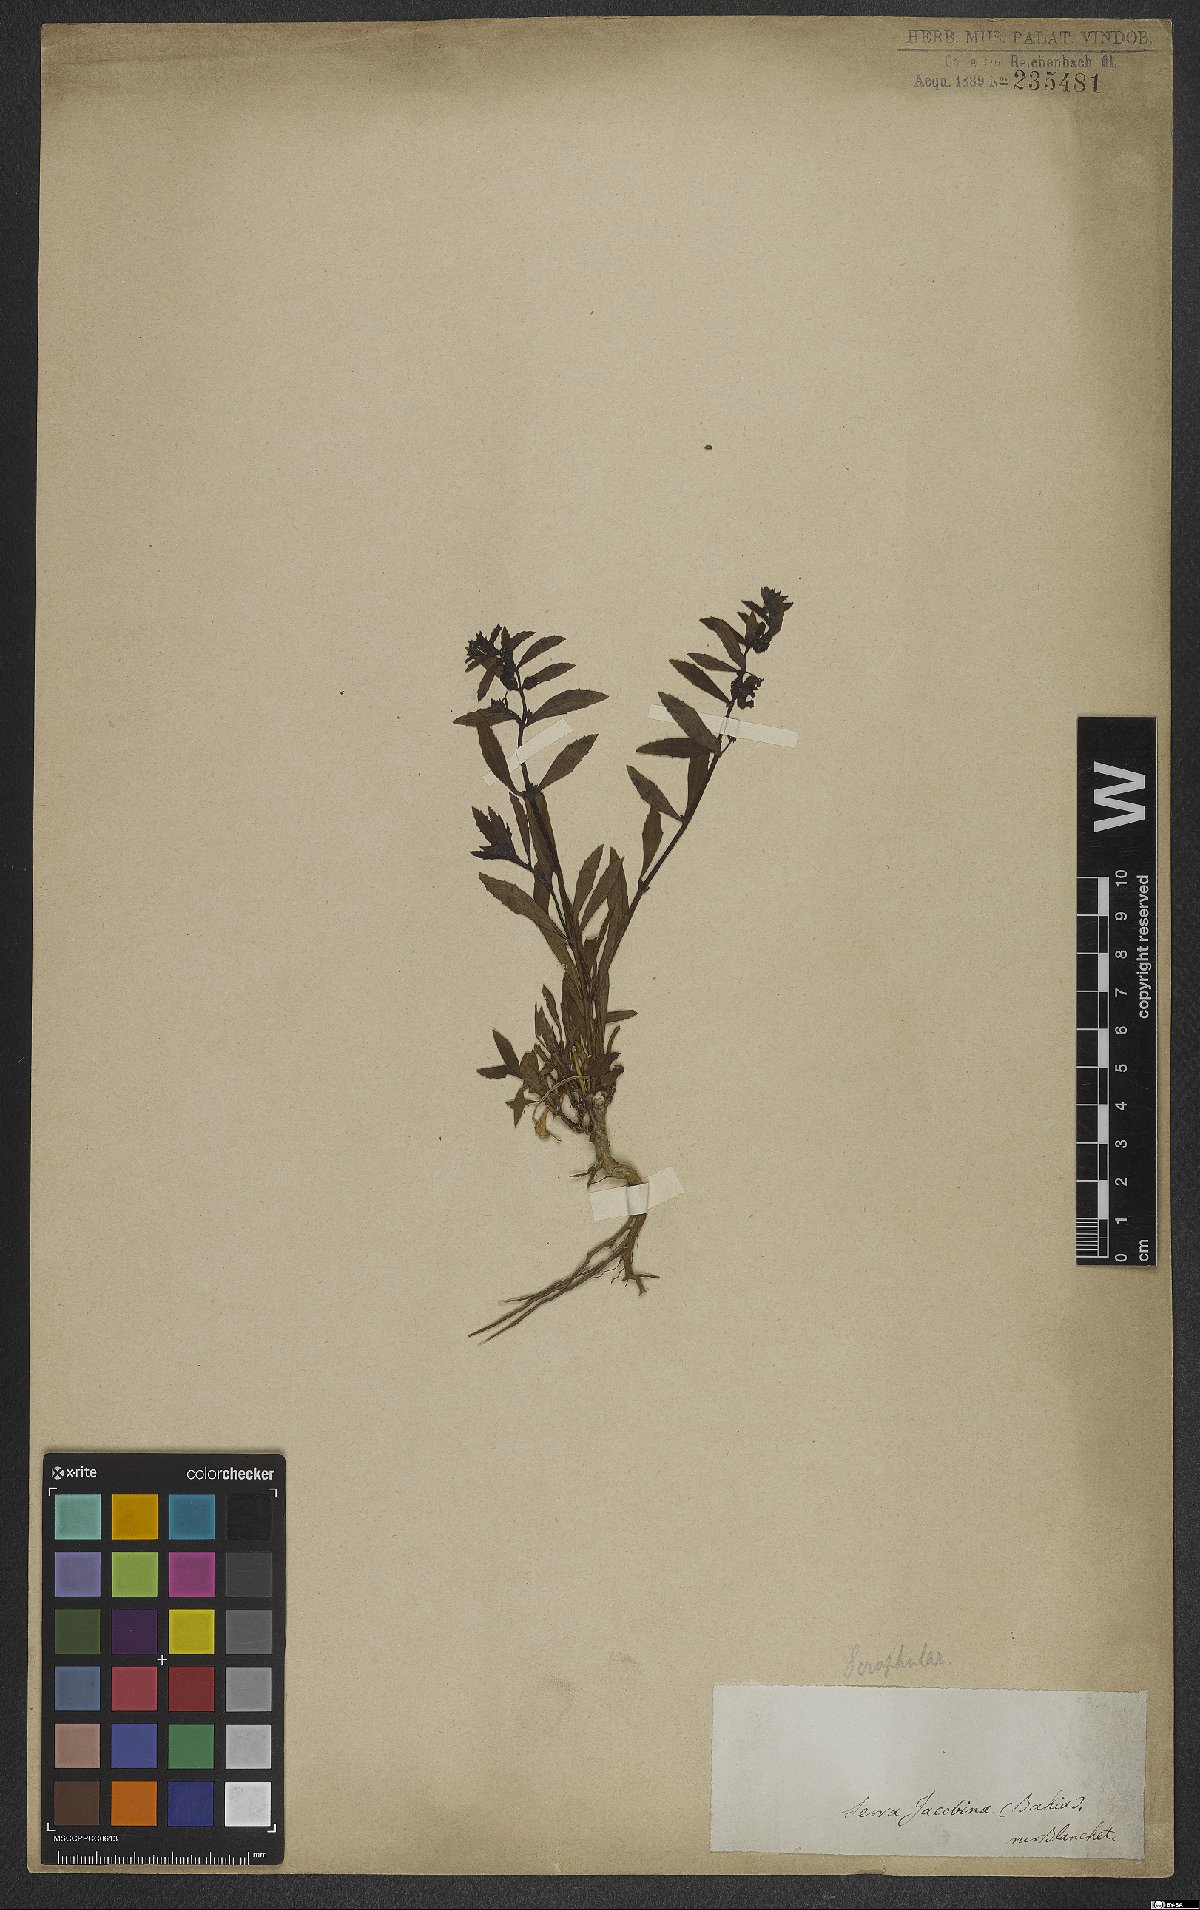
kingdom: Plantae
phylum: Tracheophyta
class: Magnoliopsida
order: Lamiales
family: Scrophulariaceae
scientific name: Scrophulariaceae
